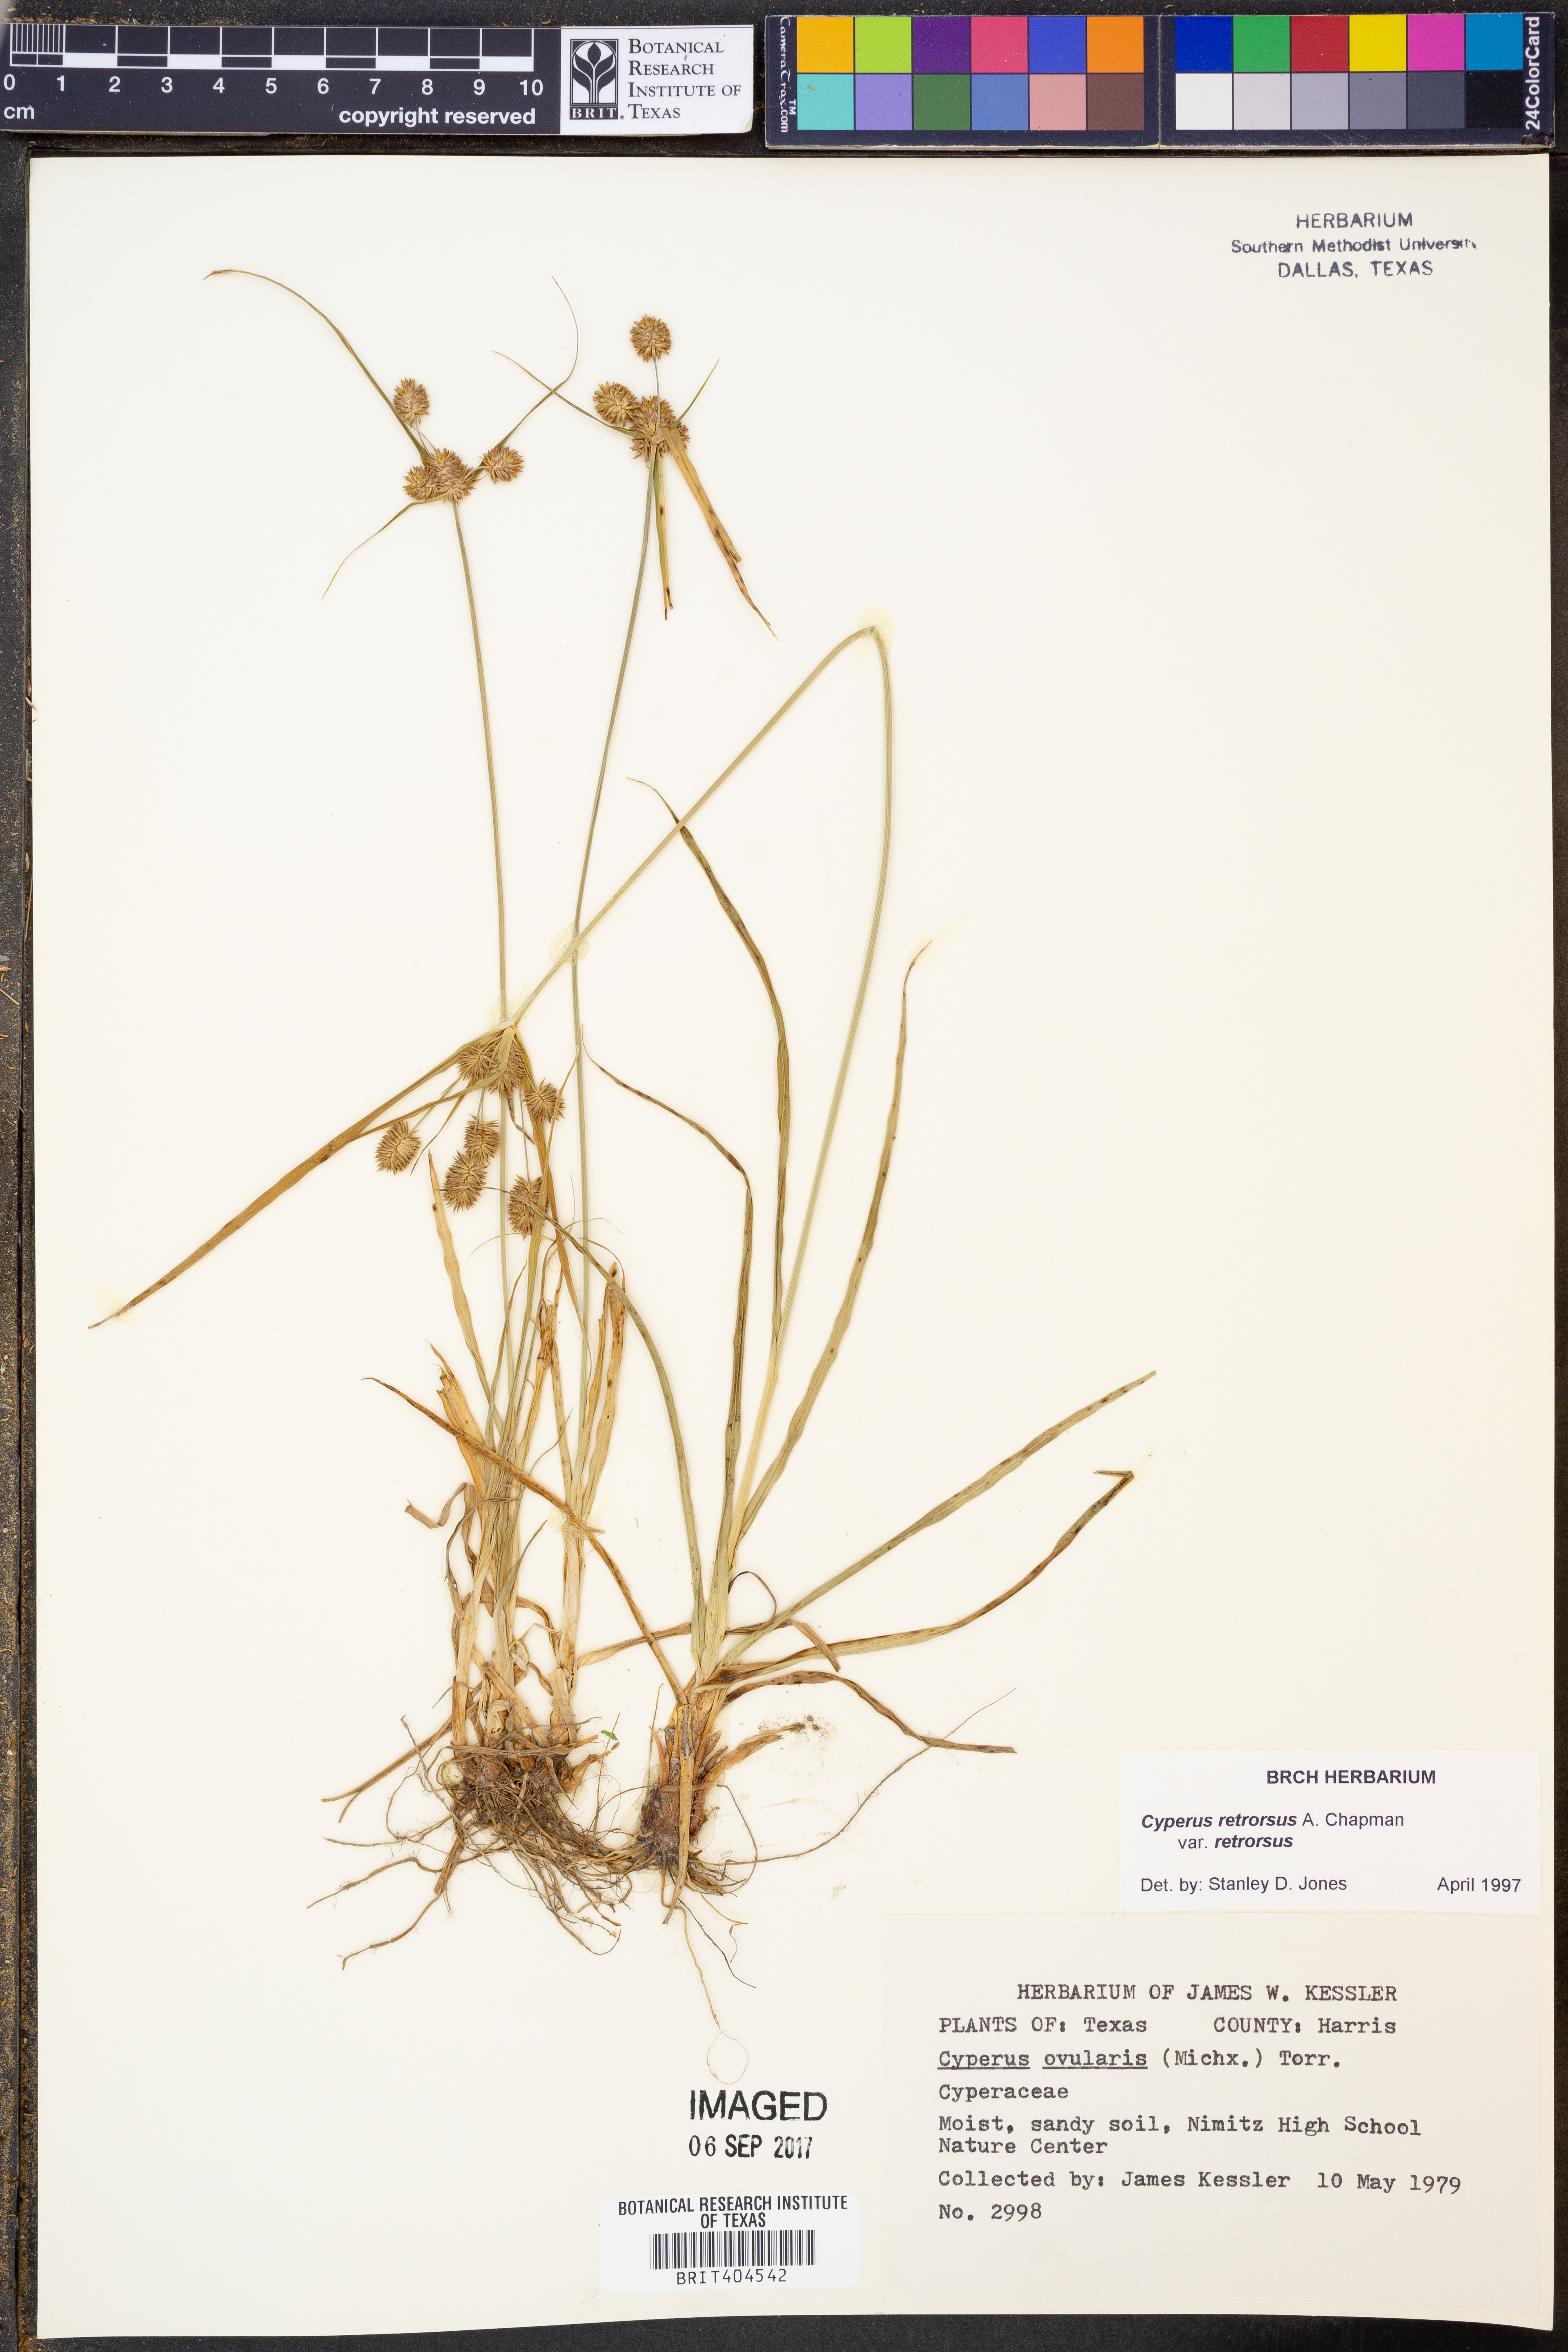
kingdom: Plantae
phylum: Tracheophyta
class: Liliopsida
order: Poales
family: Cyperaceae
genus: Cyperus
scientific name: Cyperus retrorsus
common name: Pinebarren flat sedge
